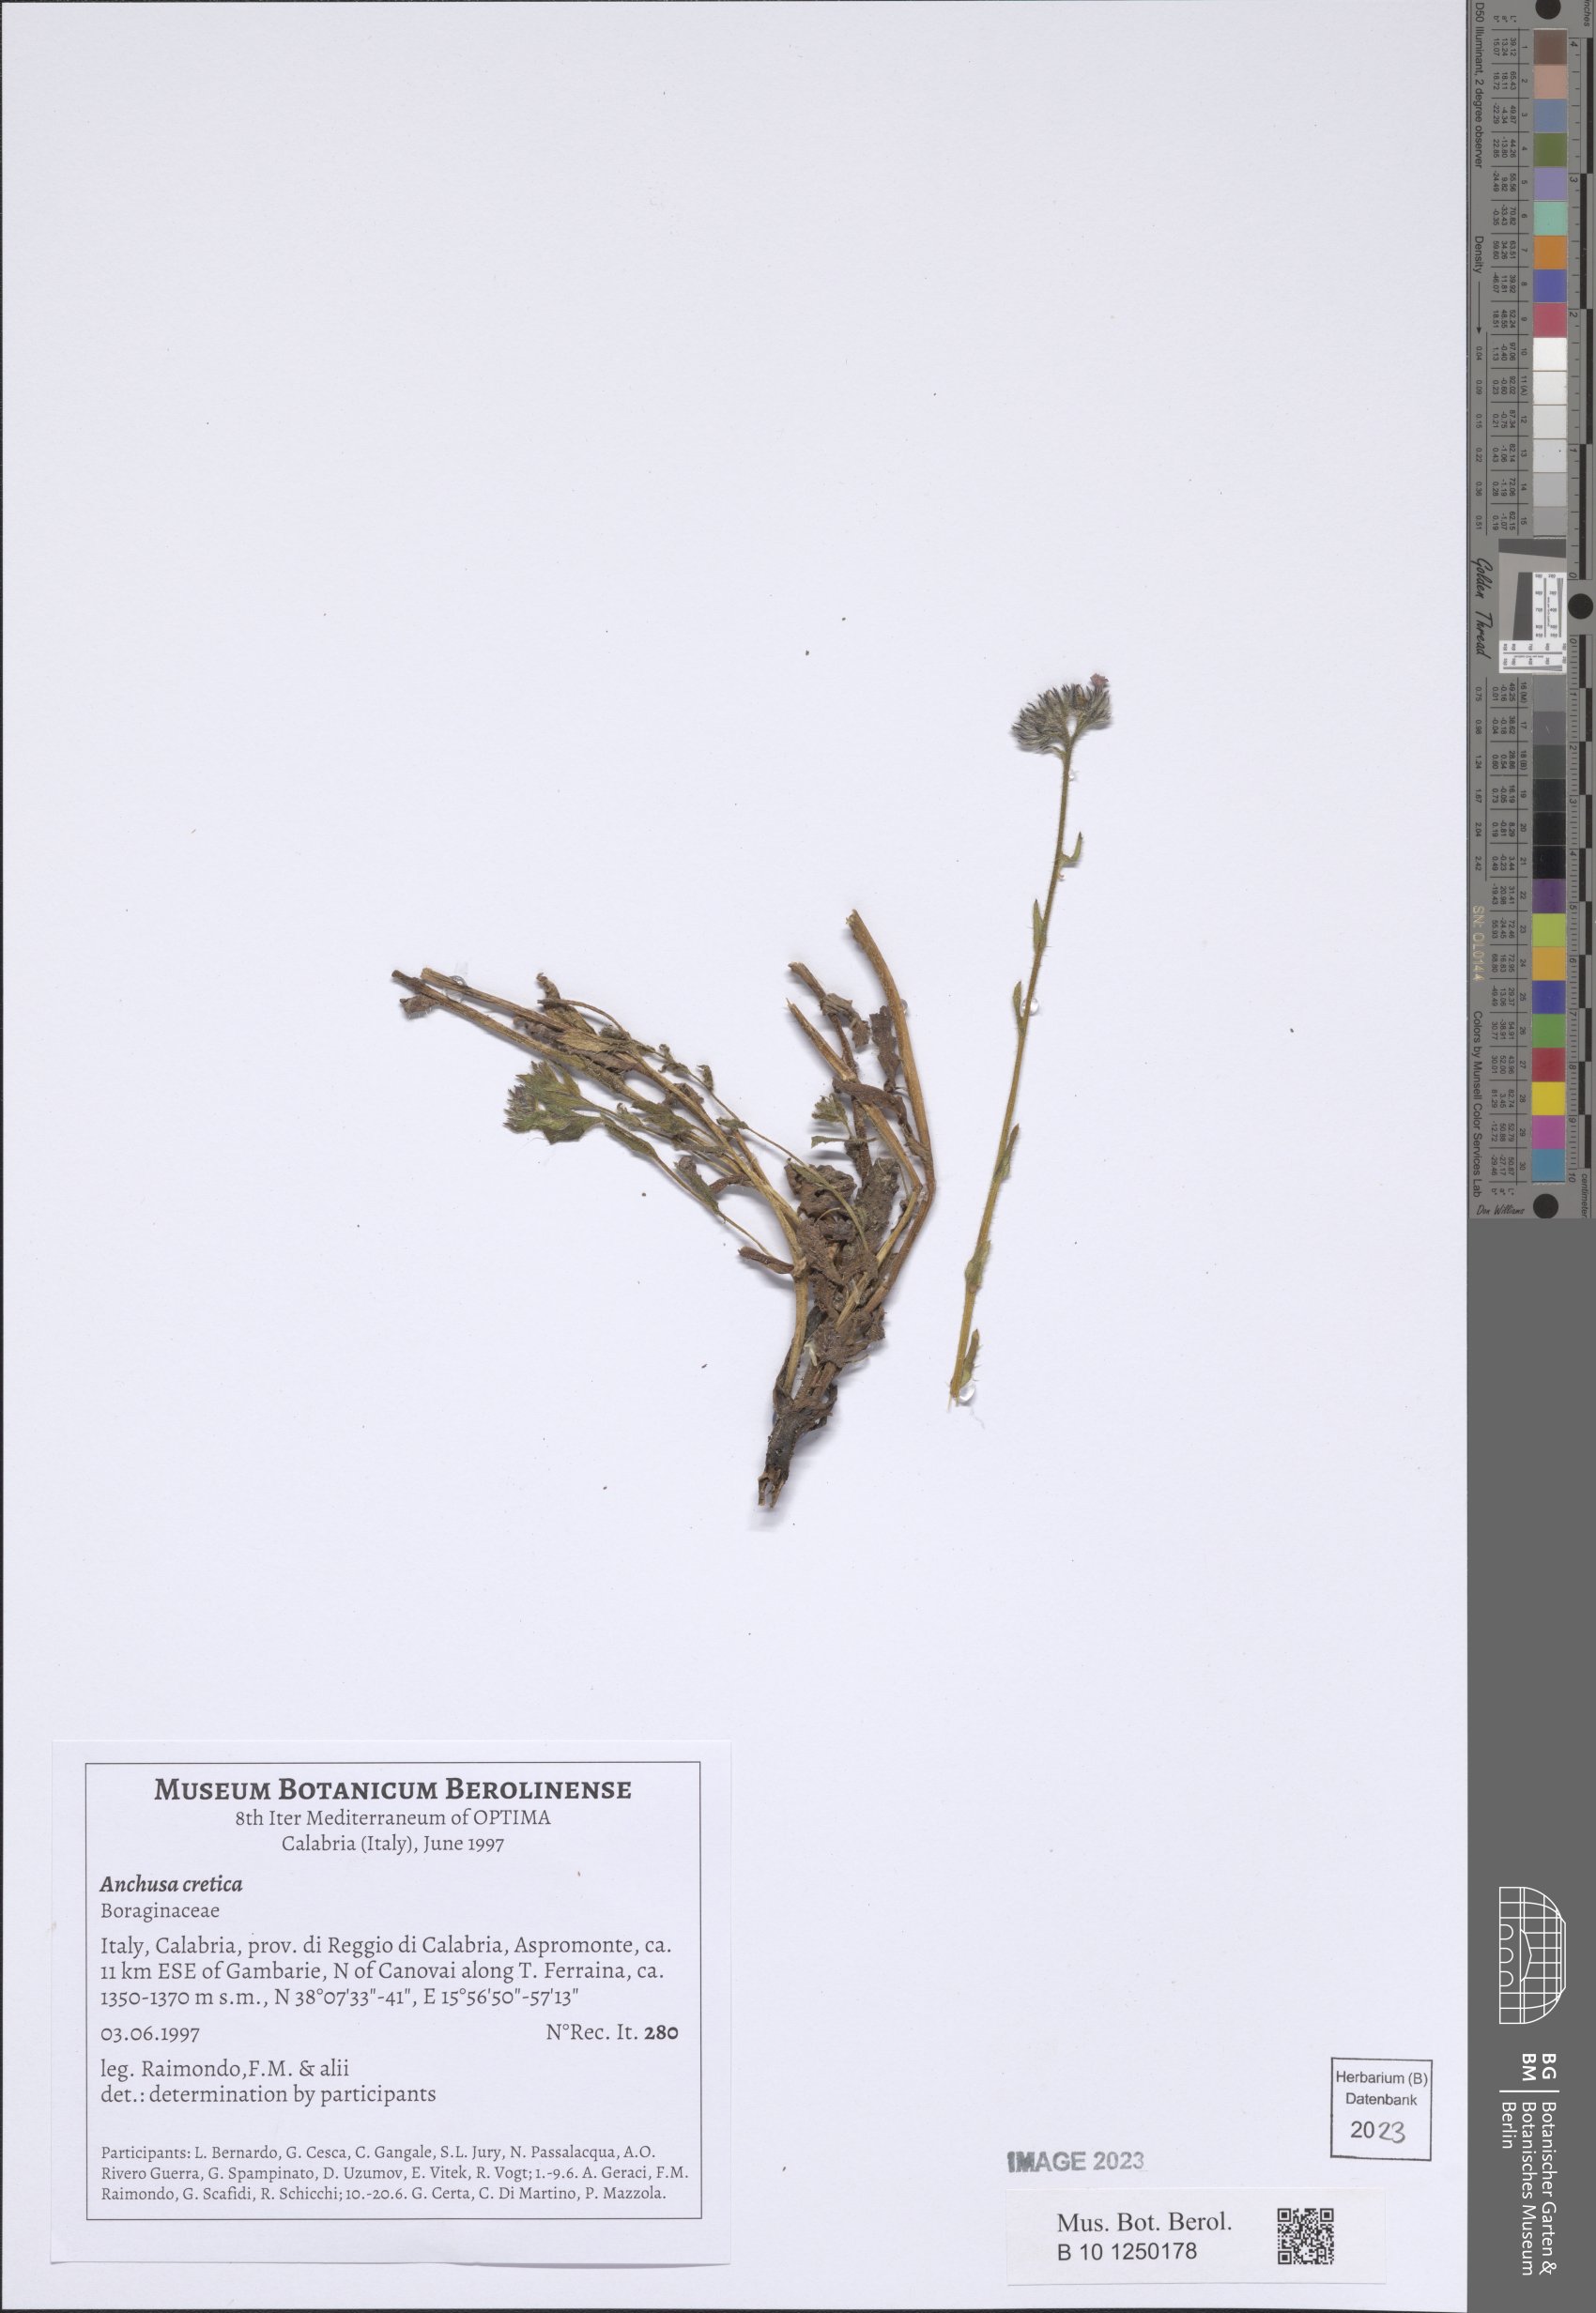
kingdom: Plantae
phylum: Tracheophyta
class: Magnoliopsida
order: Boraginales
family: Boraginaceae
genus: Anchusella
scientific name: Anchusella cretica
